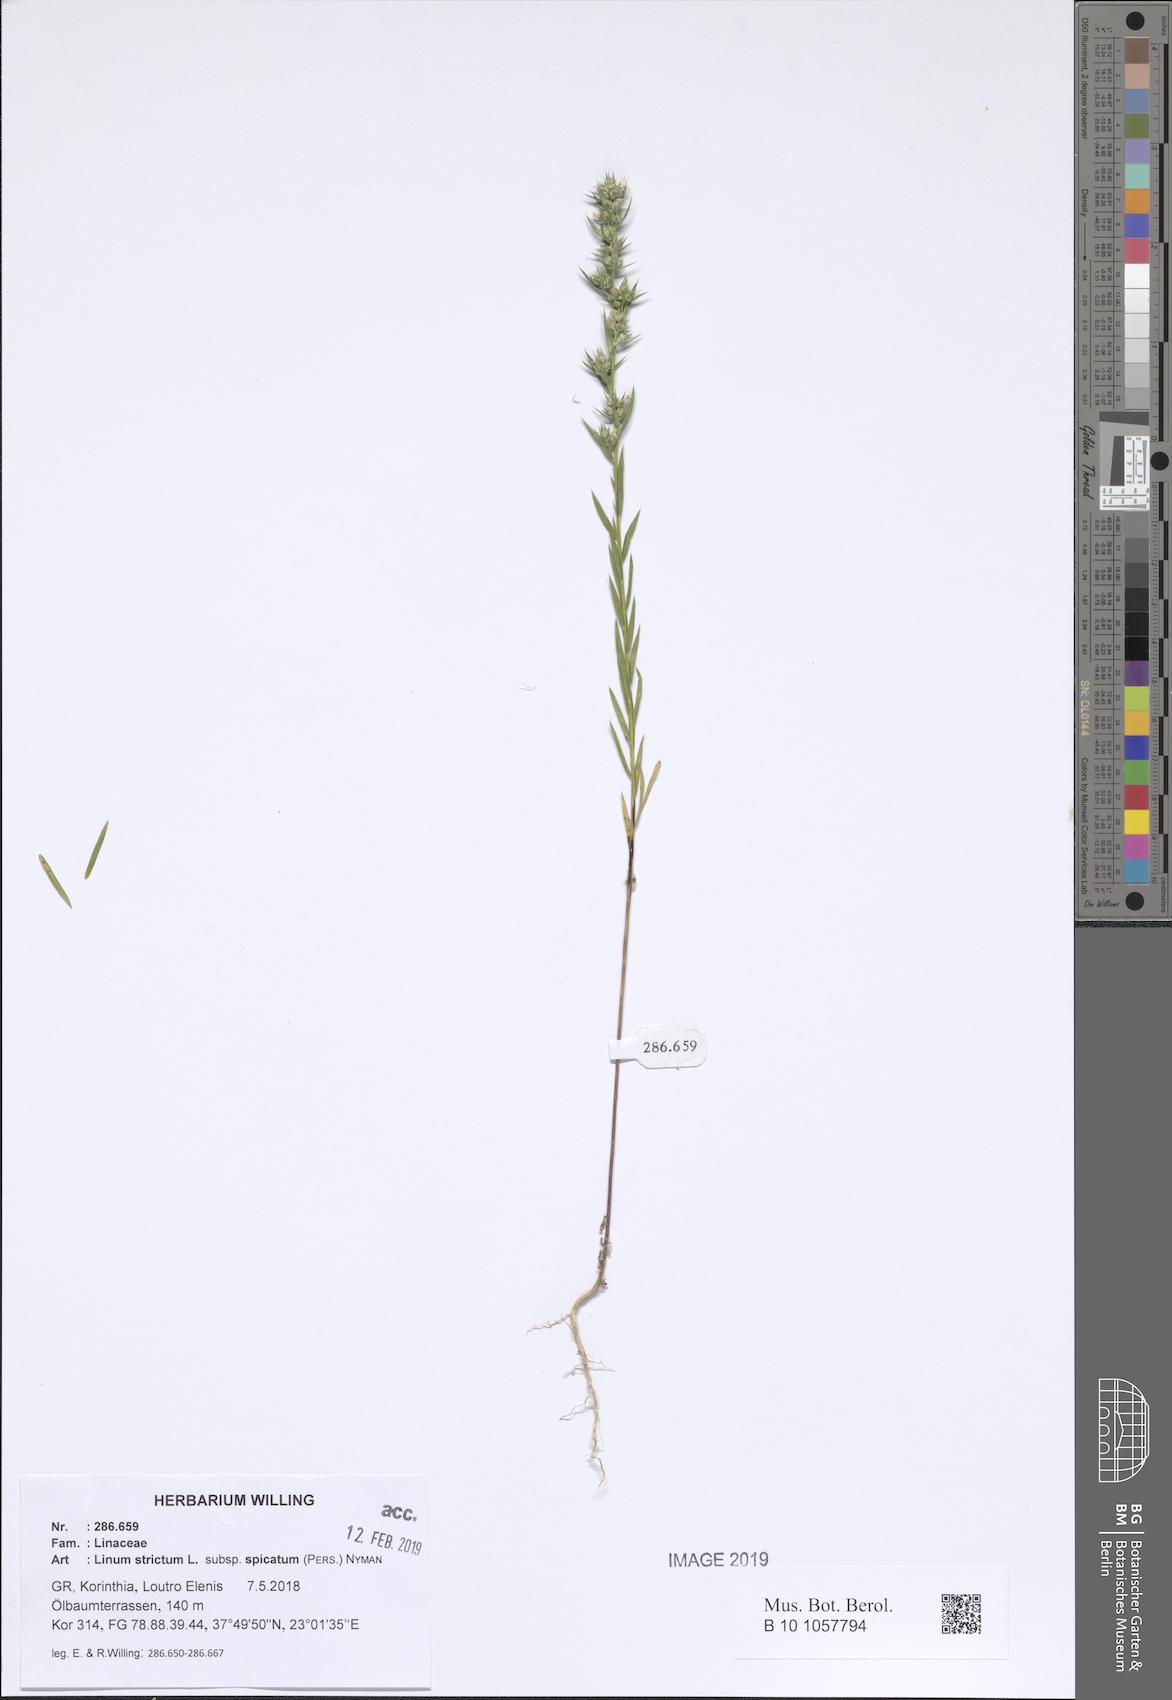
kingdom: Plantae
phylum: Tracheophyta
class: Magnoliopsida
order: Malpighiales
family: Linaceae
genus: Linum
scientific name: Linum strictum
